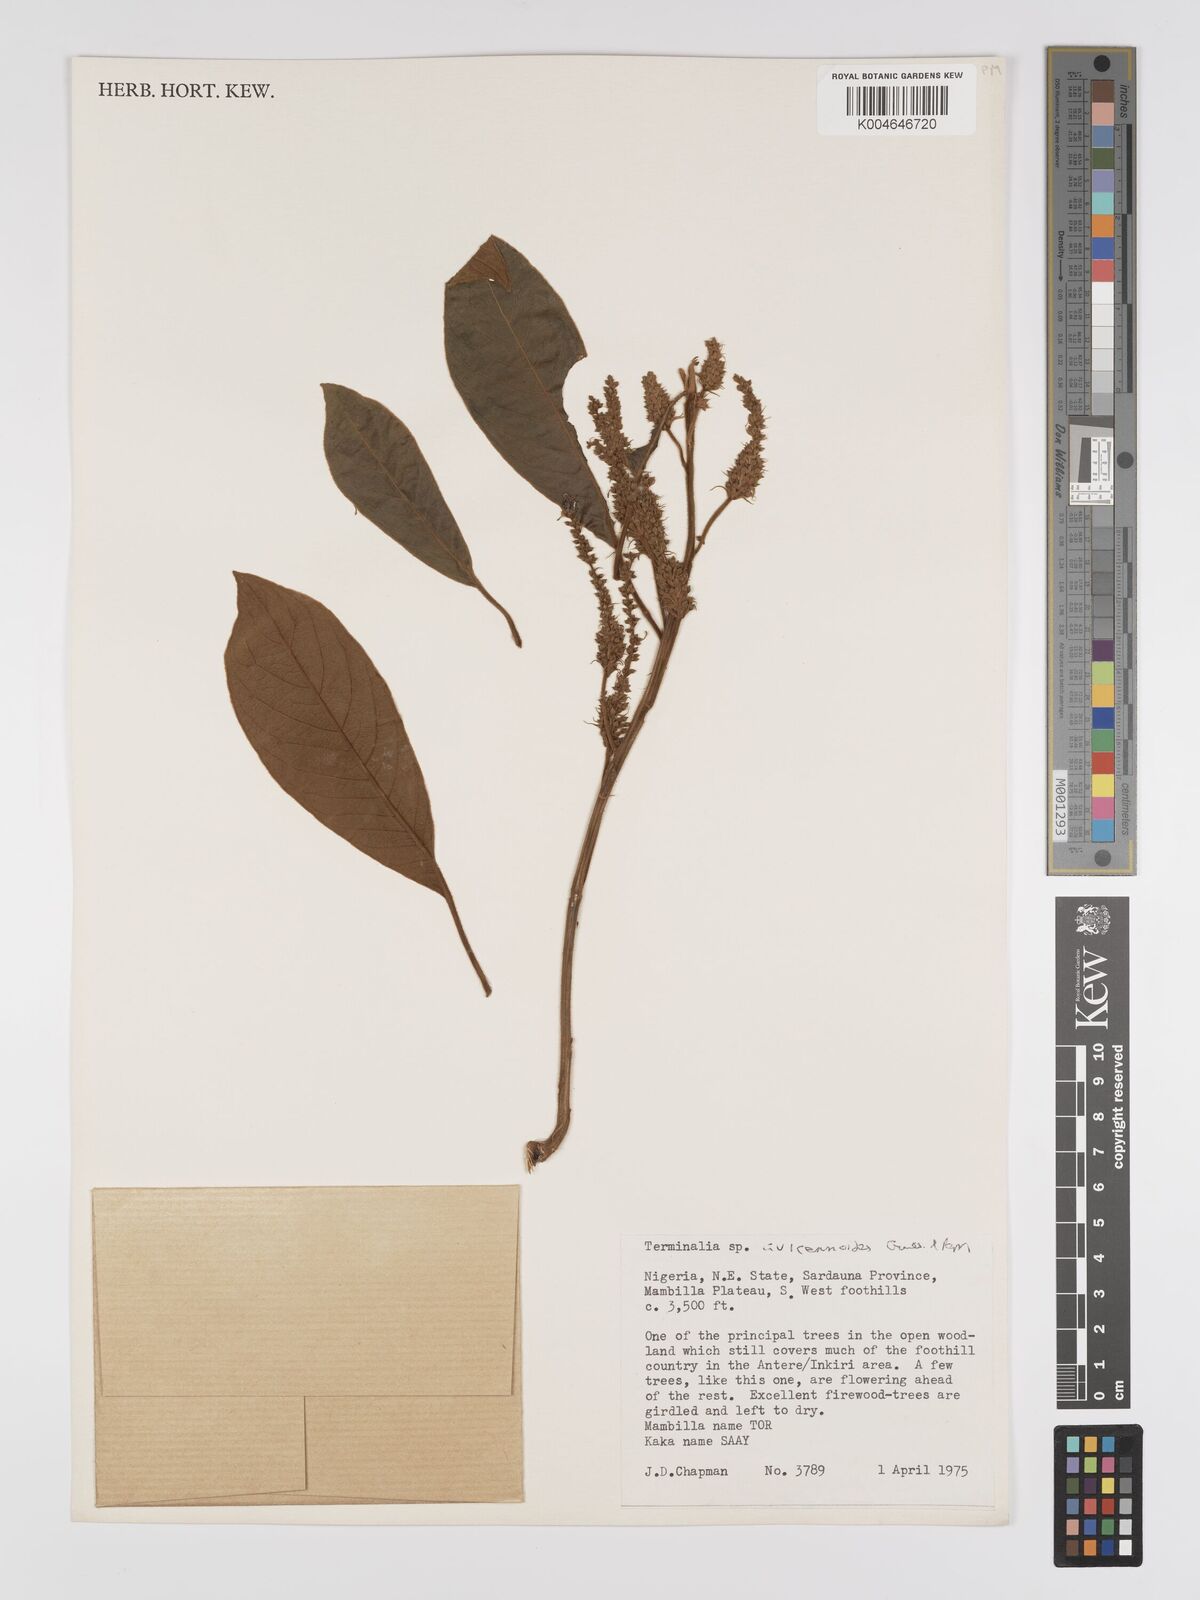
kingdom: Plantae
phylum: Tracheophyta
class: Magnoliopsida
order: Myrtales
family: Combretaceae
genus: Terminalia
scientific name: Terminalia avicennioides
